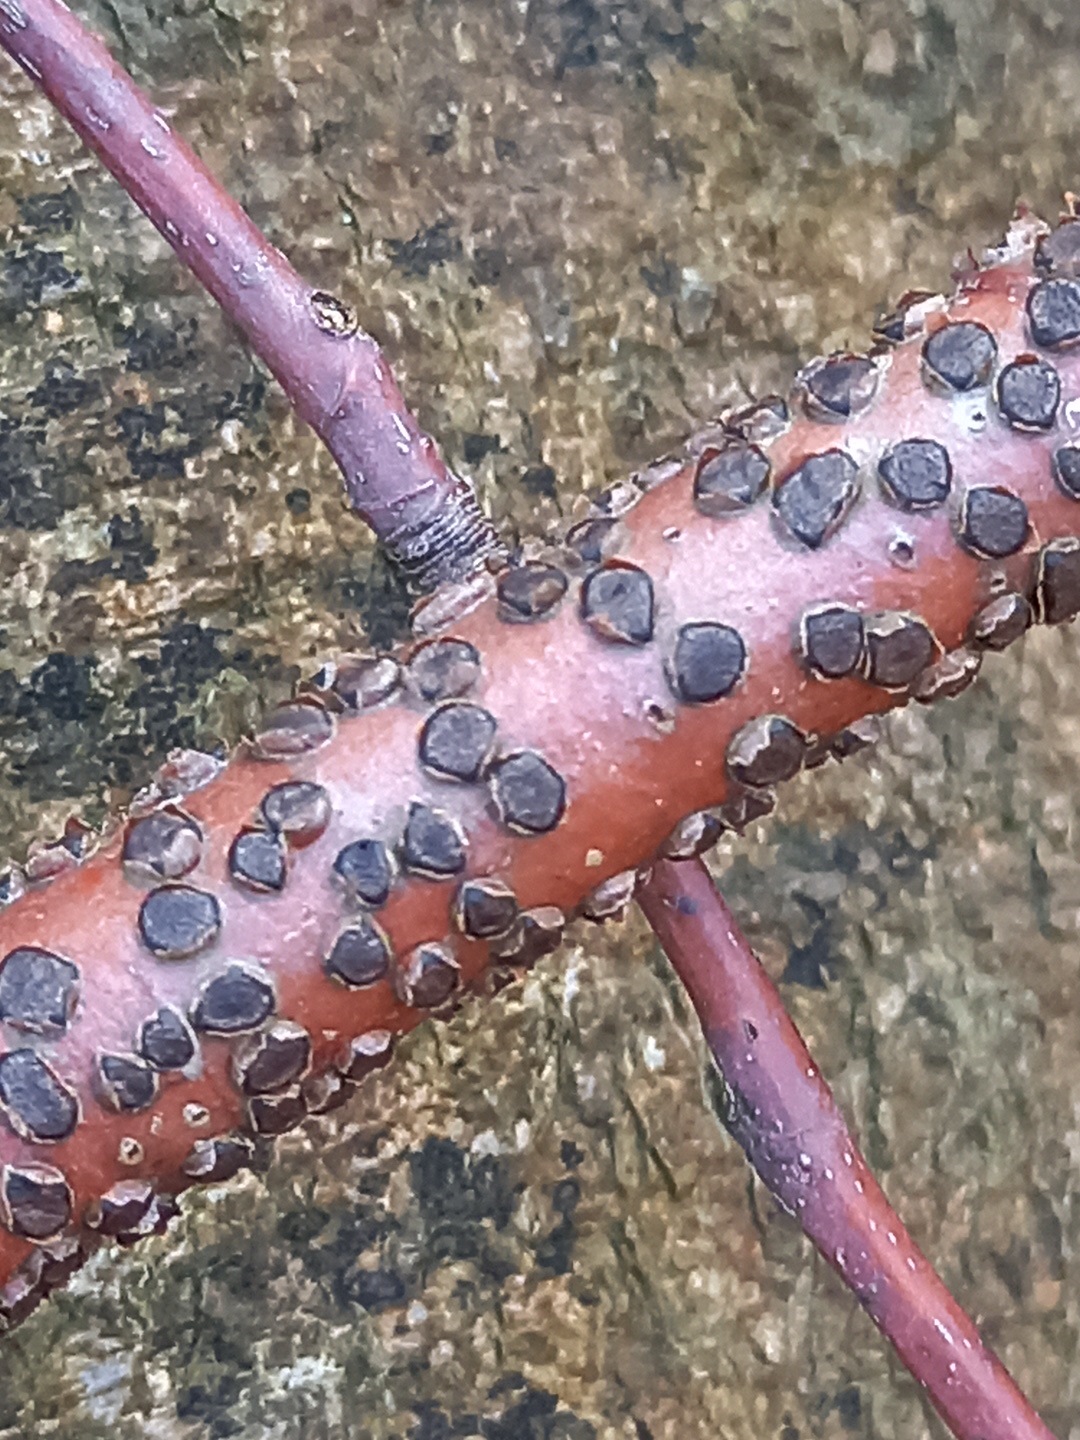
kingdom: Fungi
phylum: Ascomycota
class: Sordariomycetes
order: Xylariales
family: Diatrypaceae
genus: Diatrype
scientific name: Diatrype disciformis
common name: kant-kulskorpe
